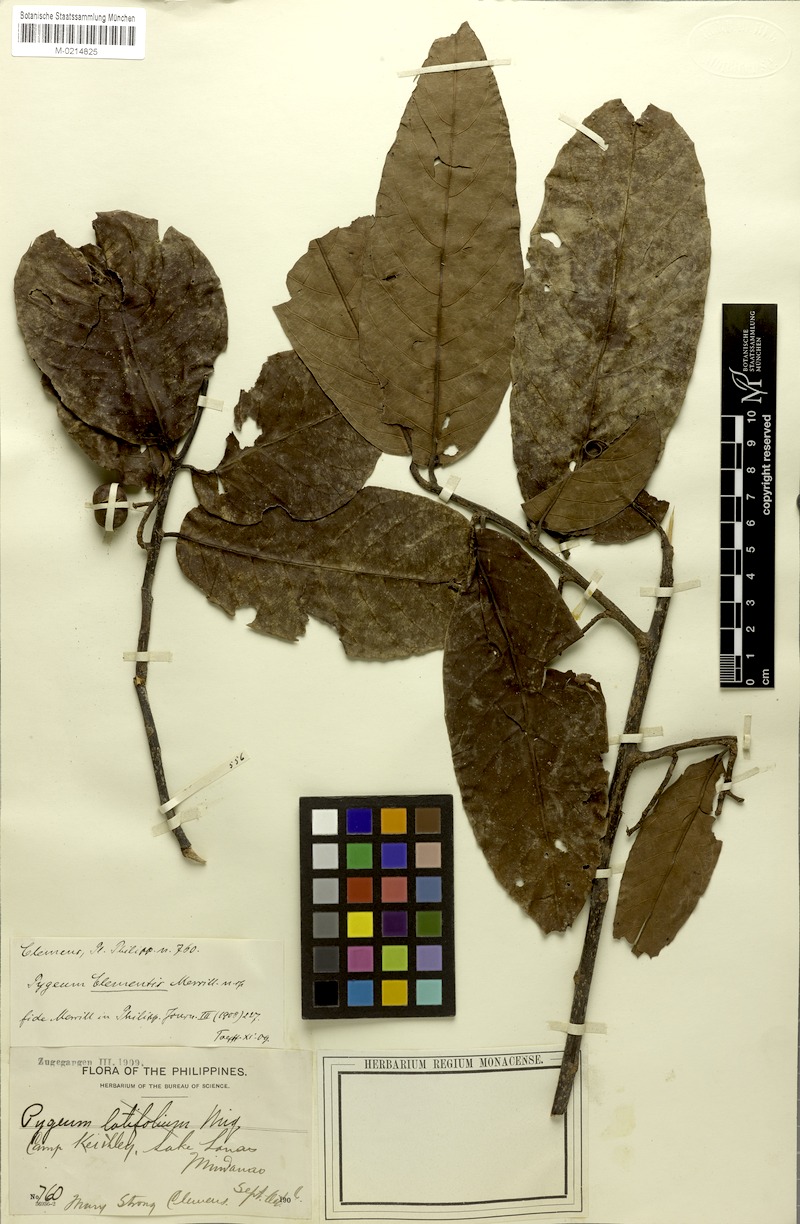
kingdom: Plantae
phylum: Tracheophyta
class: Magnoliopsida
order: Rosales
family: Rosaceae
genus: Prunus
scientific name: Prunus clementis
